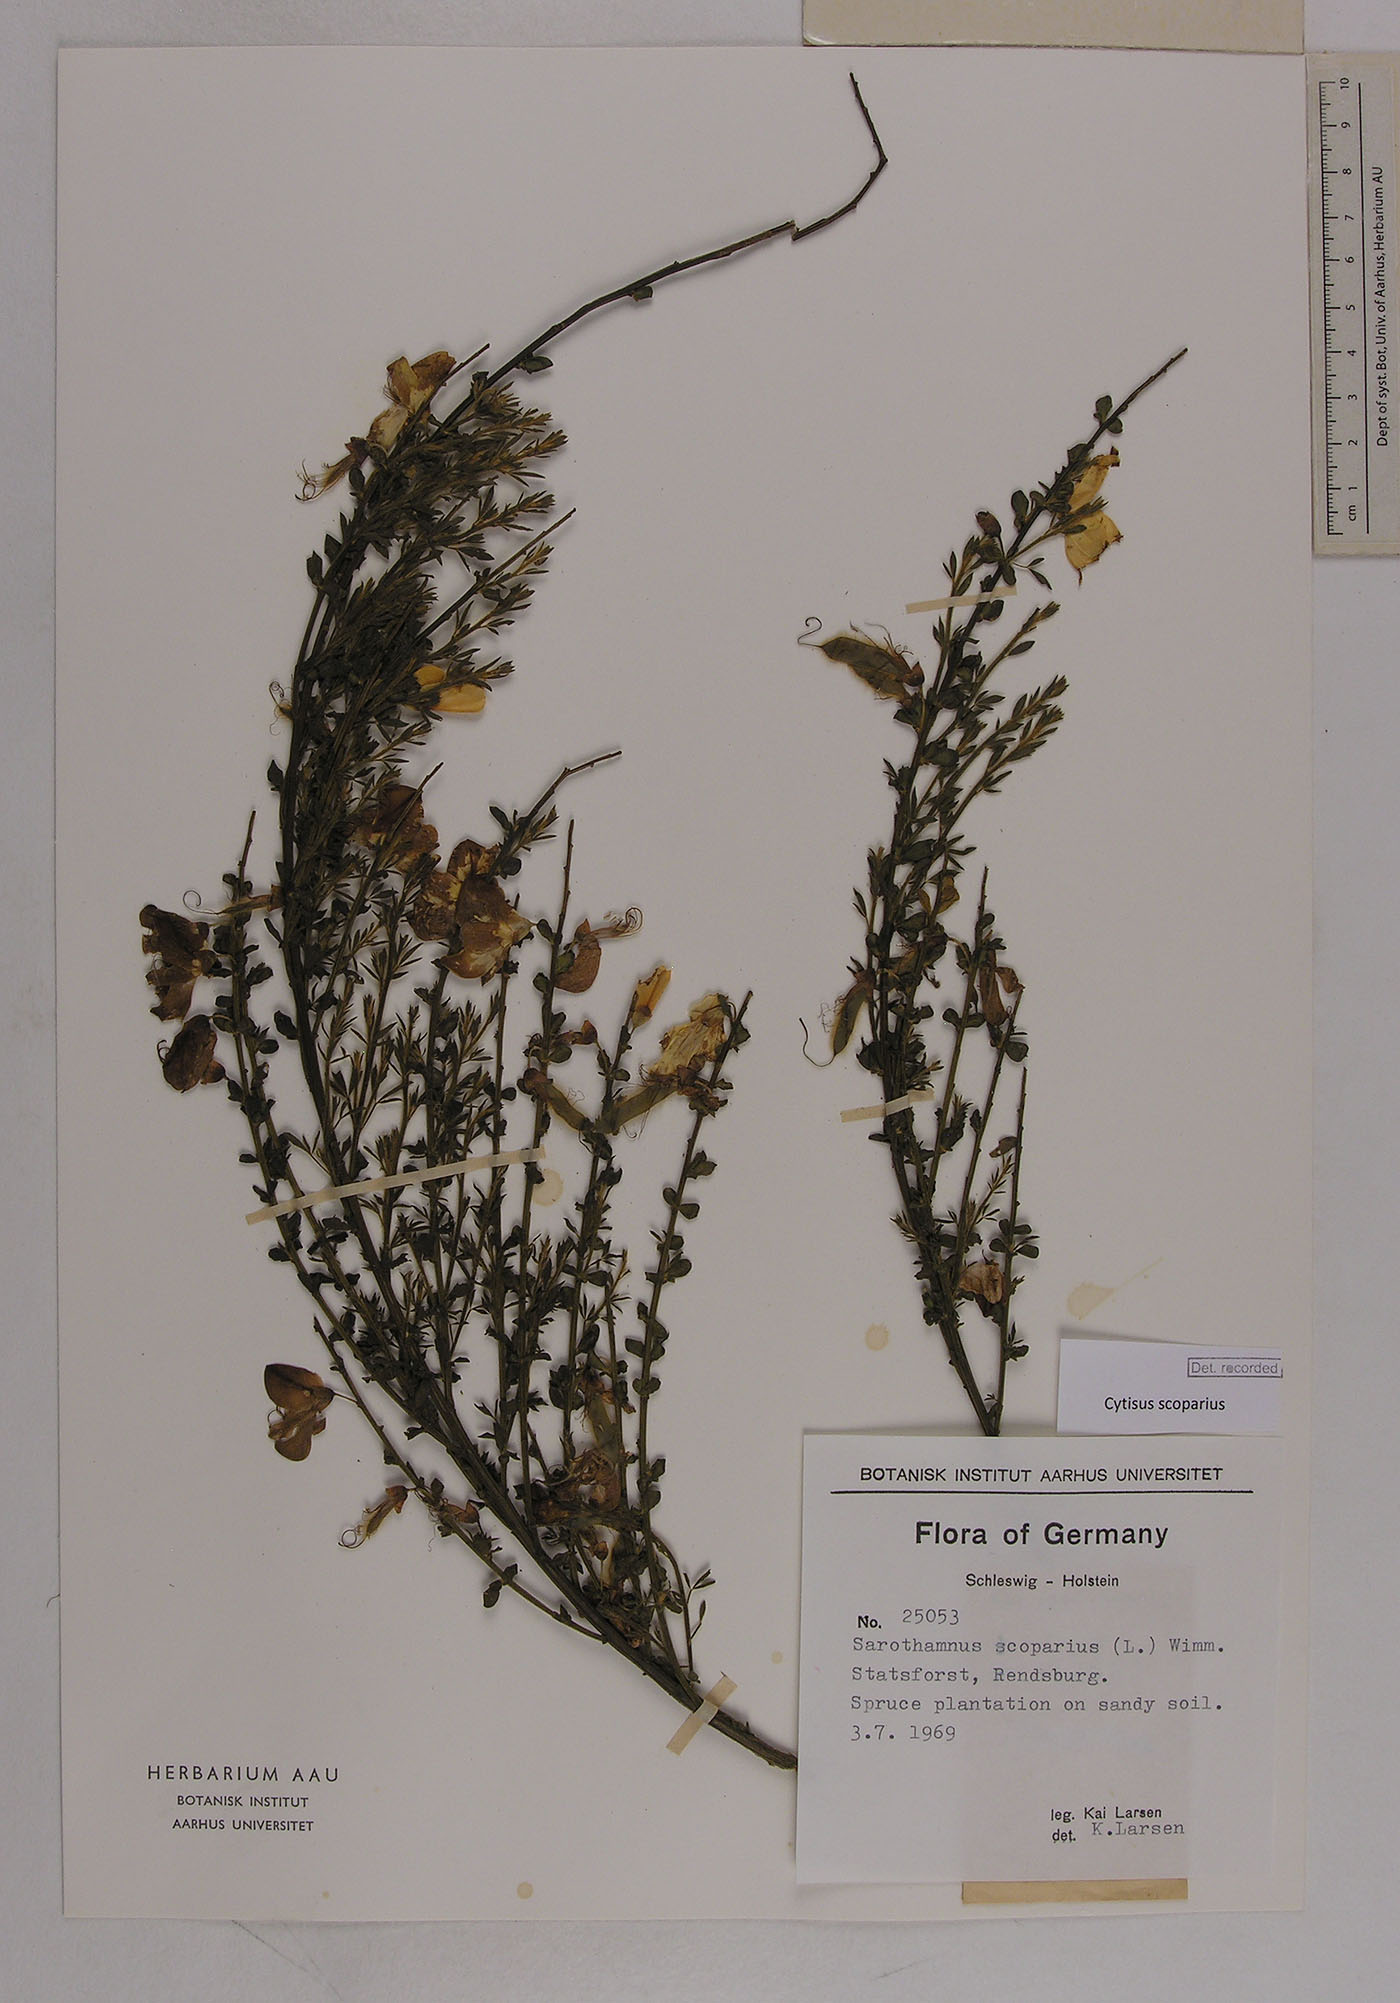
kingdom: Plantae
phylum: Tracheophyta
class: Magnoliopsida
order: Fabales
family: Fabaceae
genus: Cytisus
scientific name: Cytisus scoparius
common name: Scotch broom
